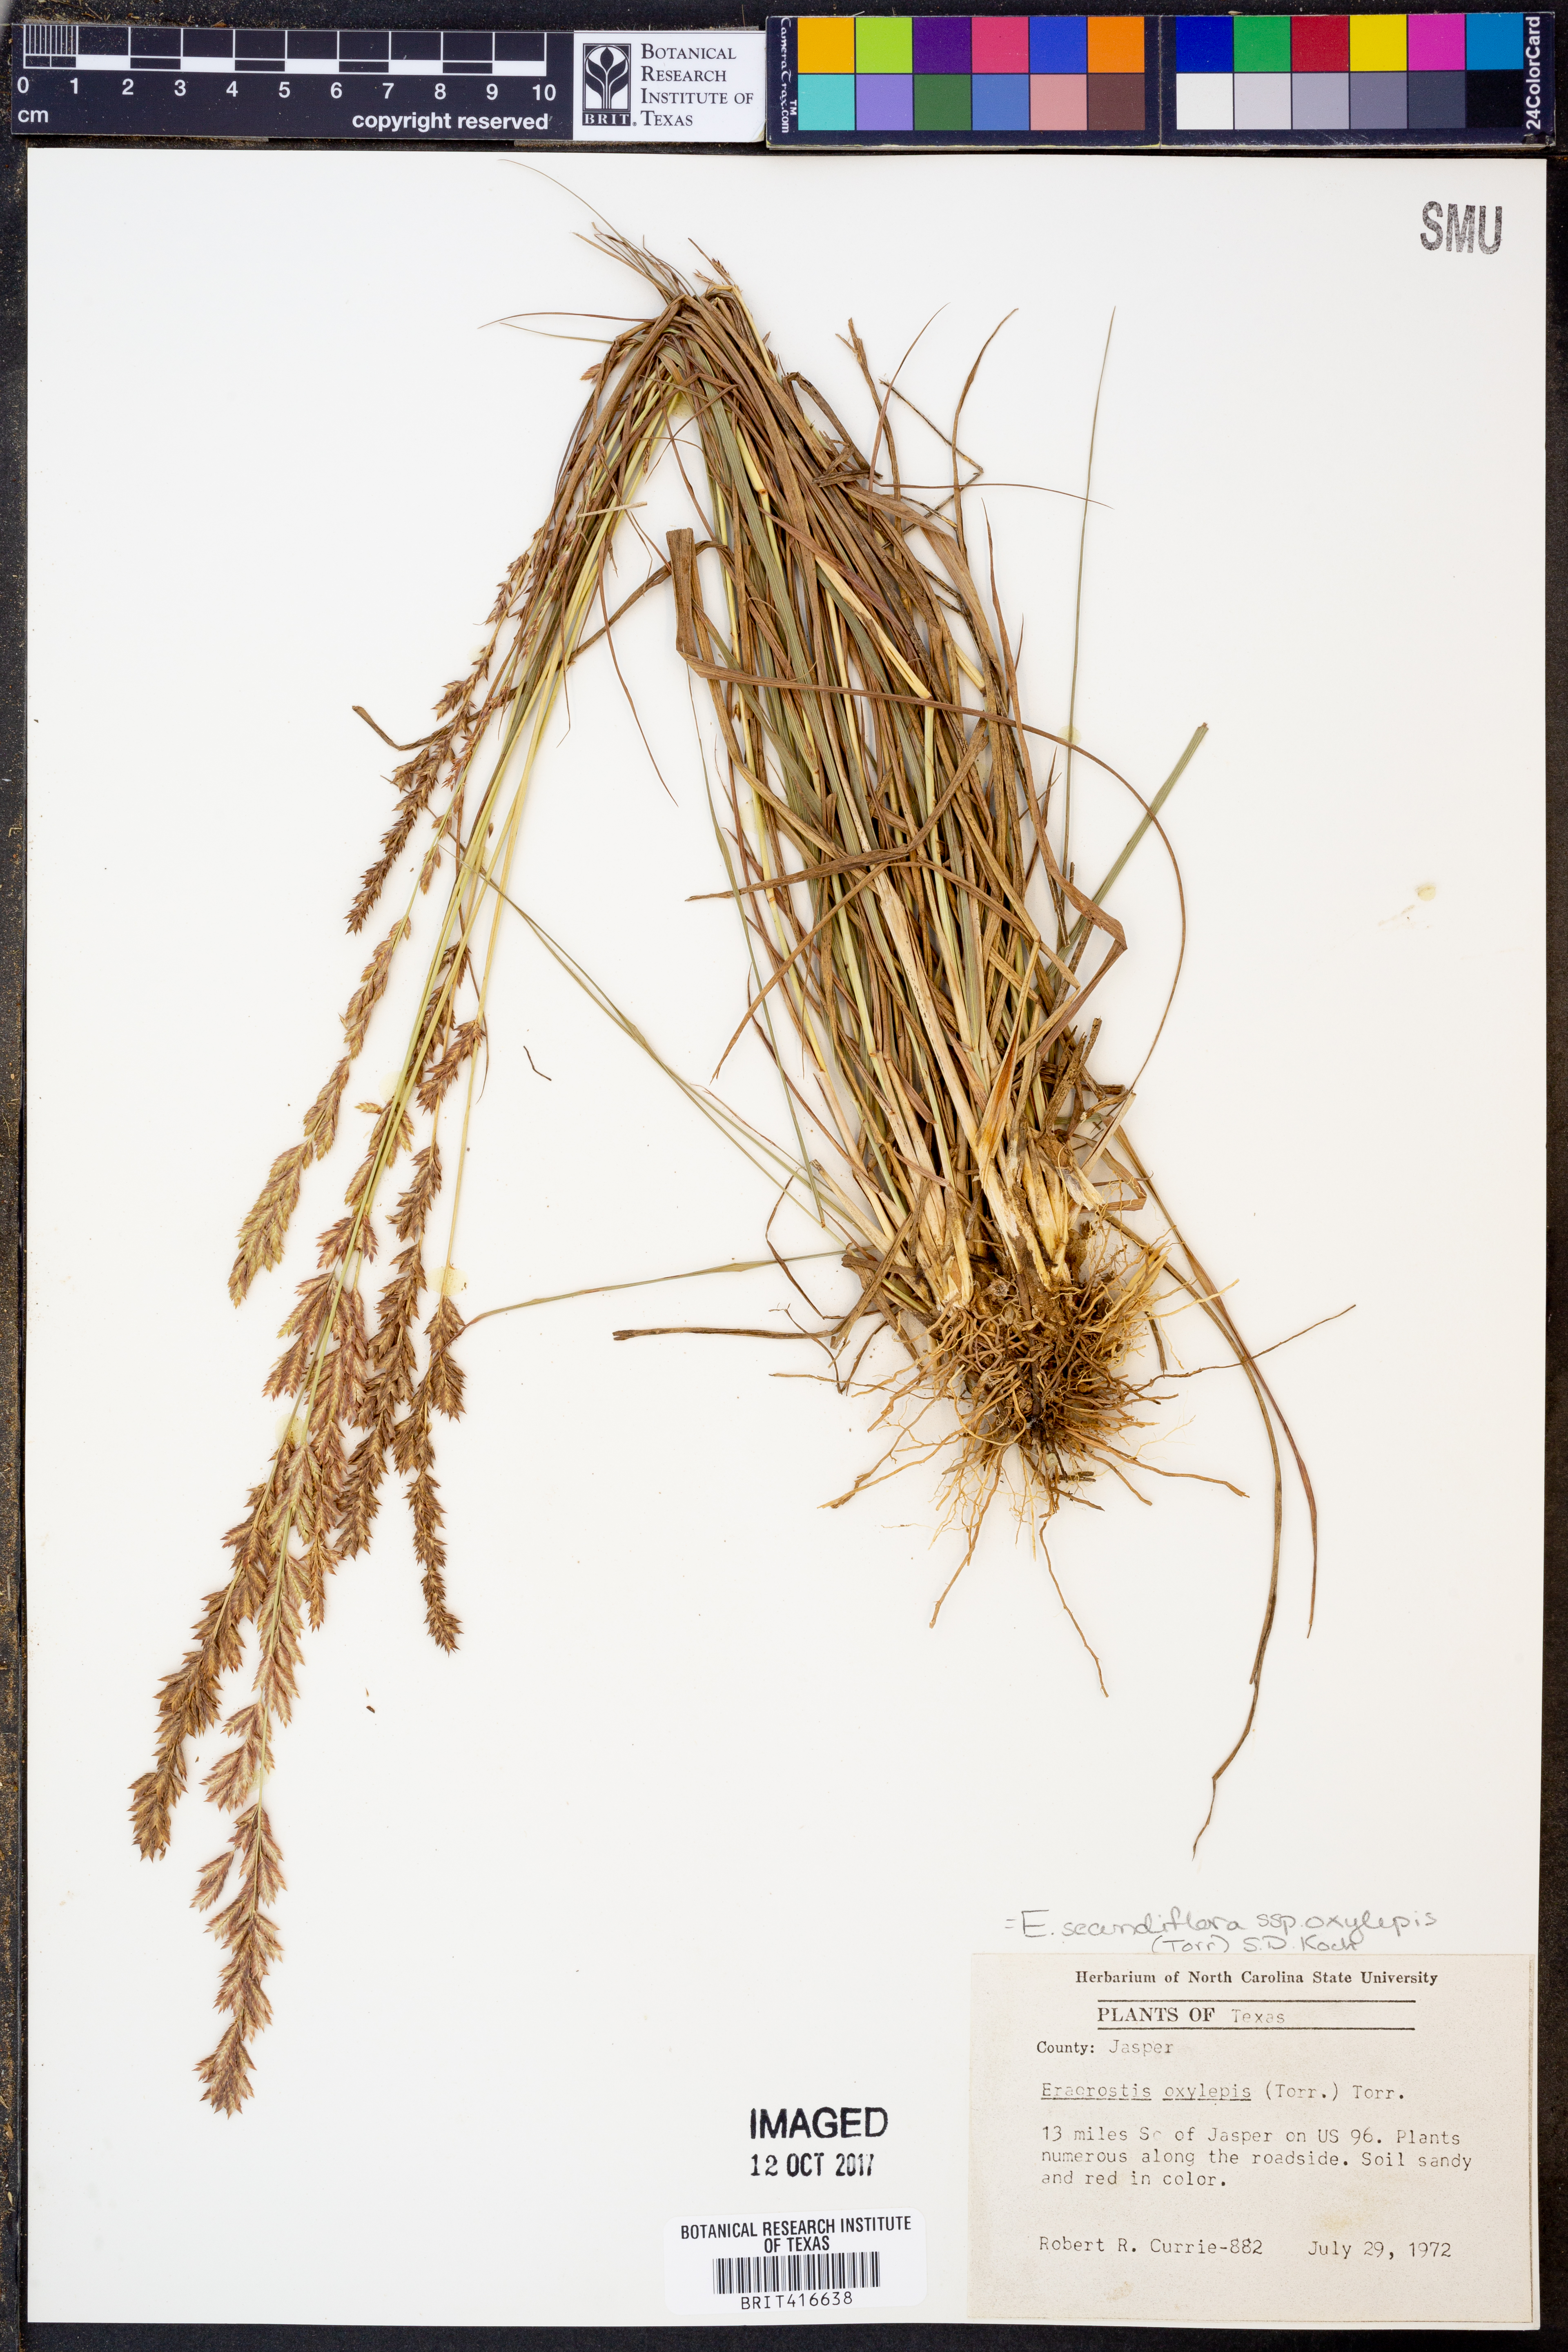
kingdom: Plantae
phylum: Tracheophyta
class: Liliopsida
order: Poales
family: Poaceae
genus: Eragrostis
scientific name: Eragrostis secundiflora
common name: Red love grass
